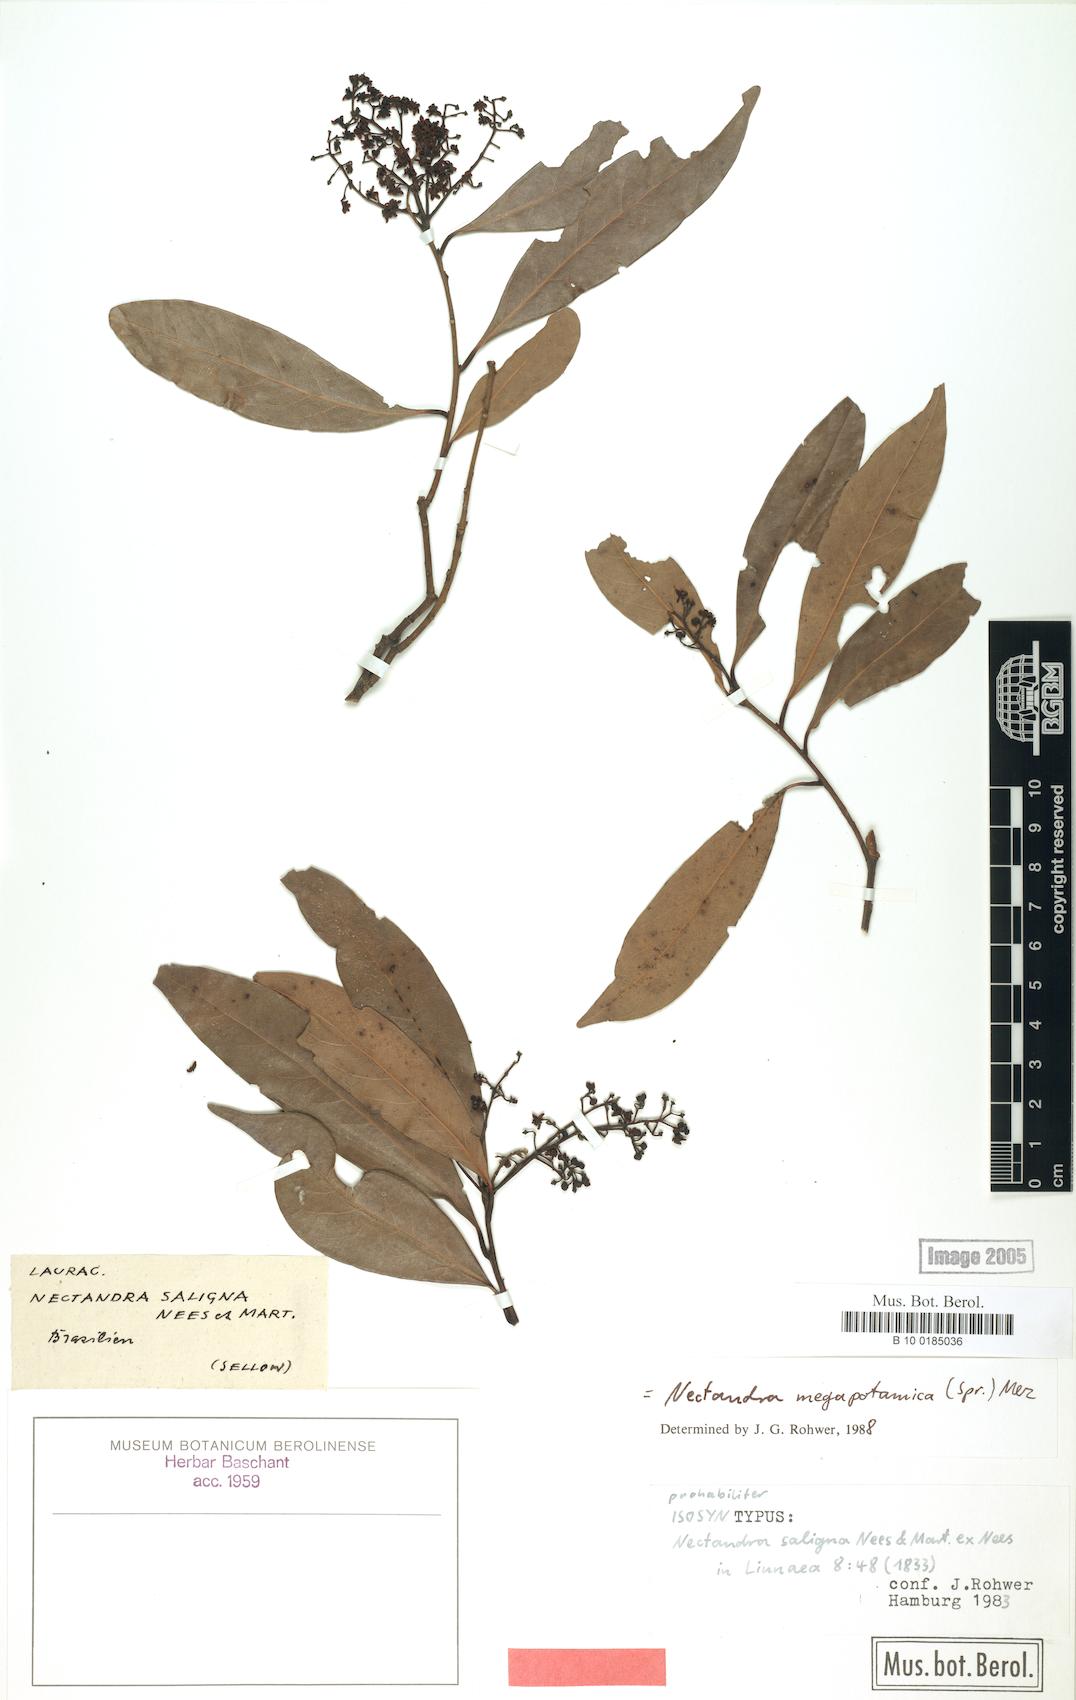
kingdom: Plantae
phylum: Tracheophyta
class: Magnoliopsida
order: Laurales
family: Lauraceae
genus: Nectandra
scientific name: Nectandra megapotamica
